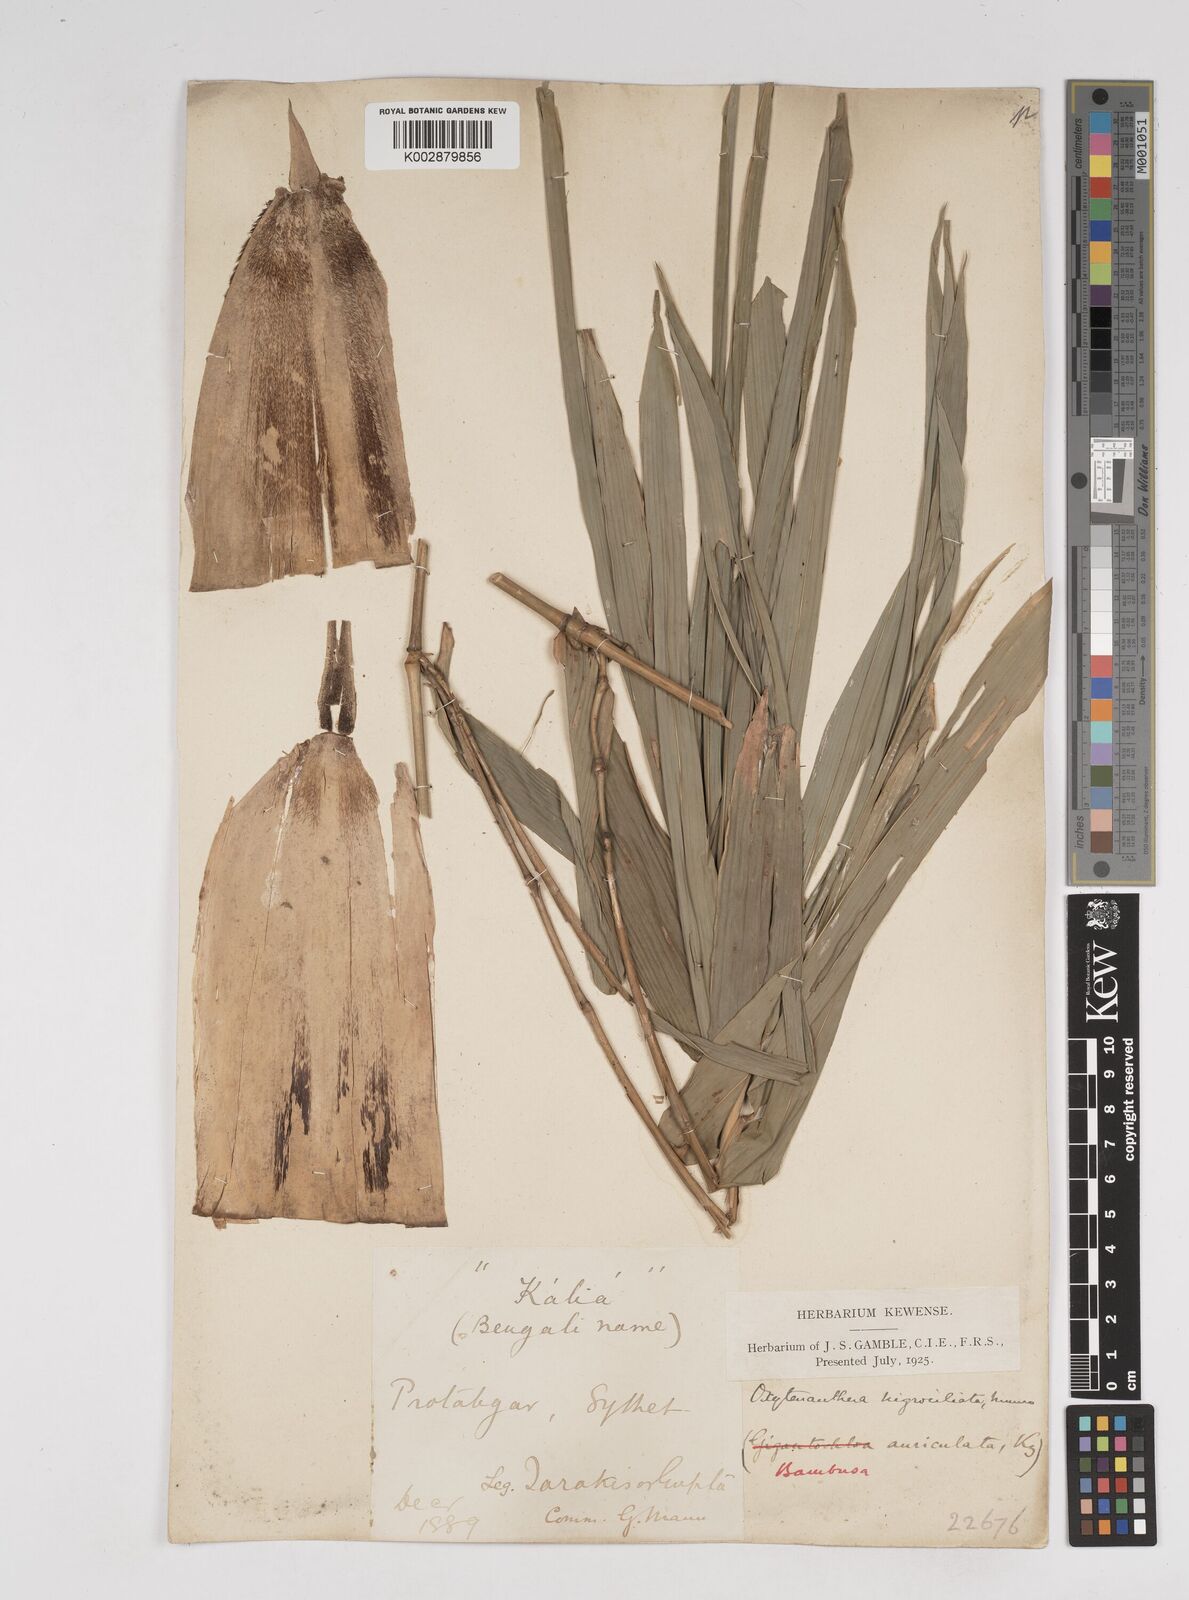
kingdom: Plantae
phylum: Tracheophyta
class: Liliopsida
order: Poales
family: Poaceae
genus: Gigantochloa
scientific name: Gigantochloa
